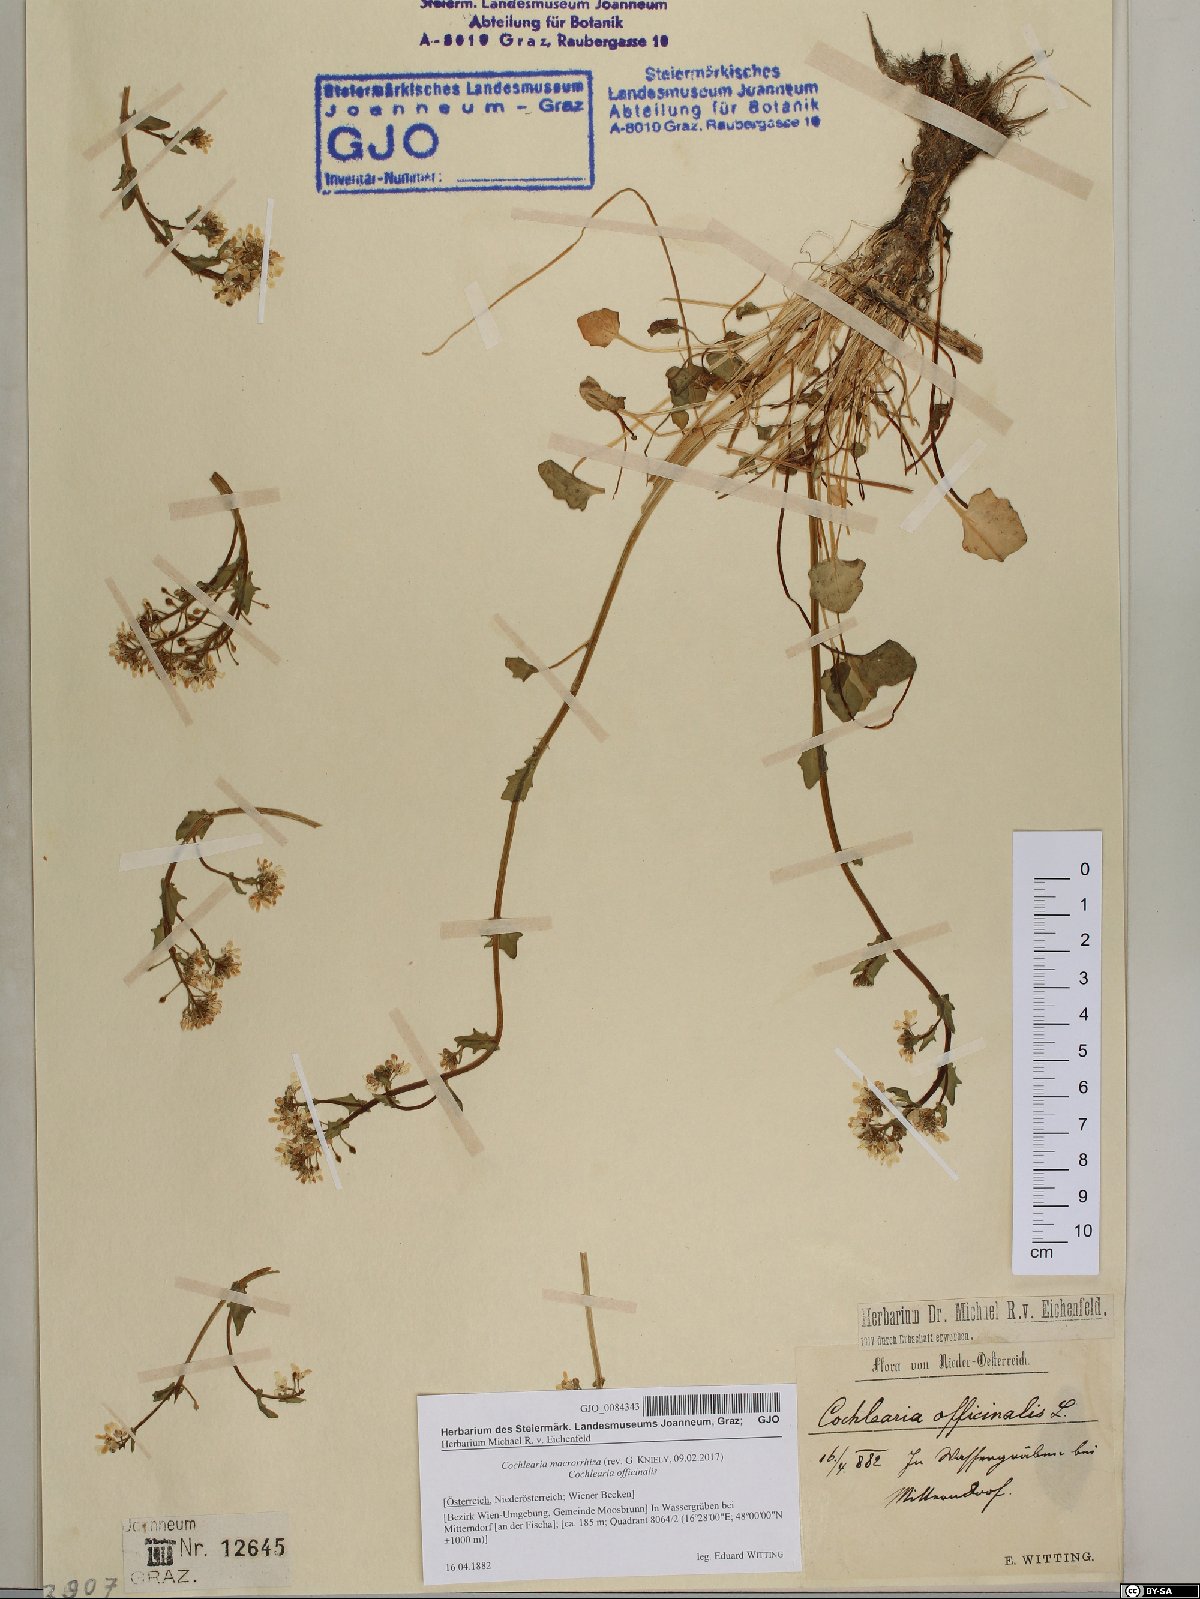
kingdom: Plantae
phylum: Tracheophyta
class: Magnoliopsida
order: Brassicales
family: Brassicaceae
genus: Cochlearia
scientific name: Cochlearia pyrenaica
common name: Upland scurvy-grass
